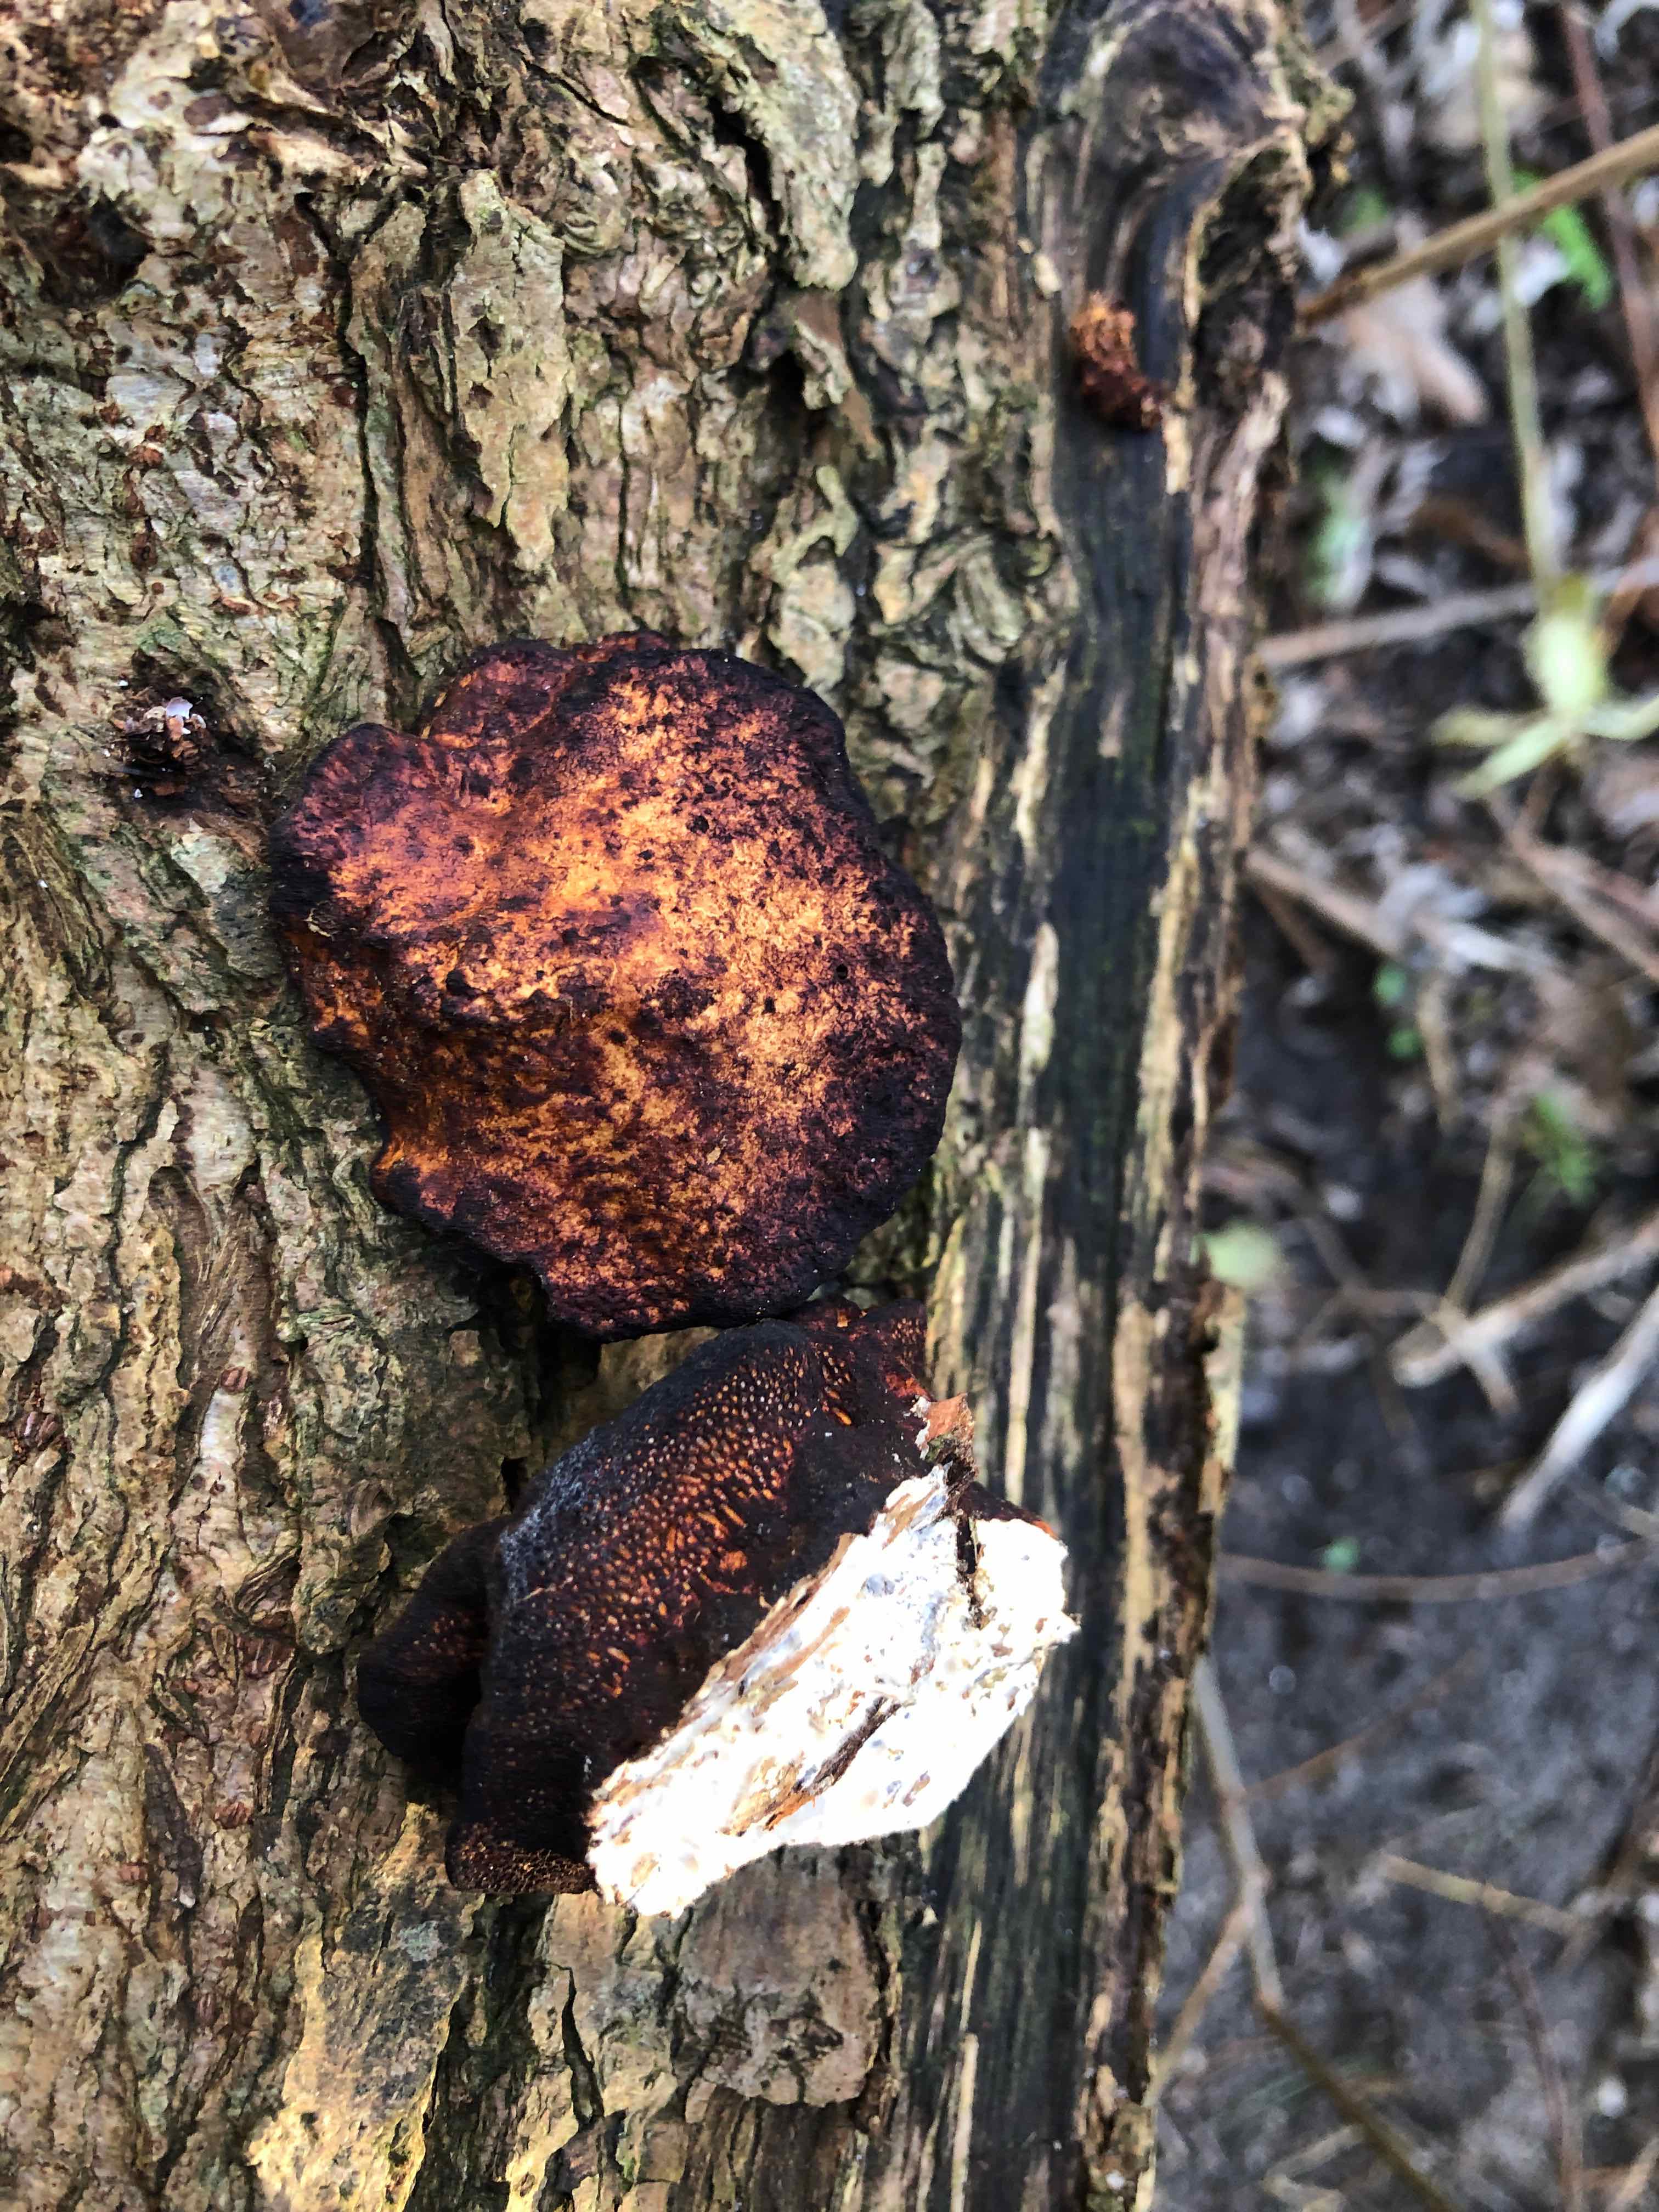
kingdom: Fungi
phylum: Basidiomycota
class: Agaricomycetes
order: Polyporales
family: Polyporaceae
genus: Daedaleopsis
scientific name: Daedaleopsis confragosa
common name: rødmende læderporesvamp
